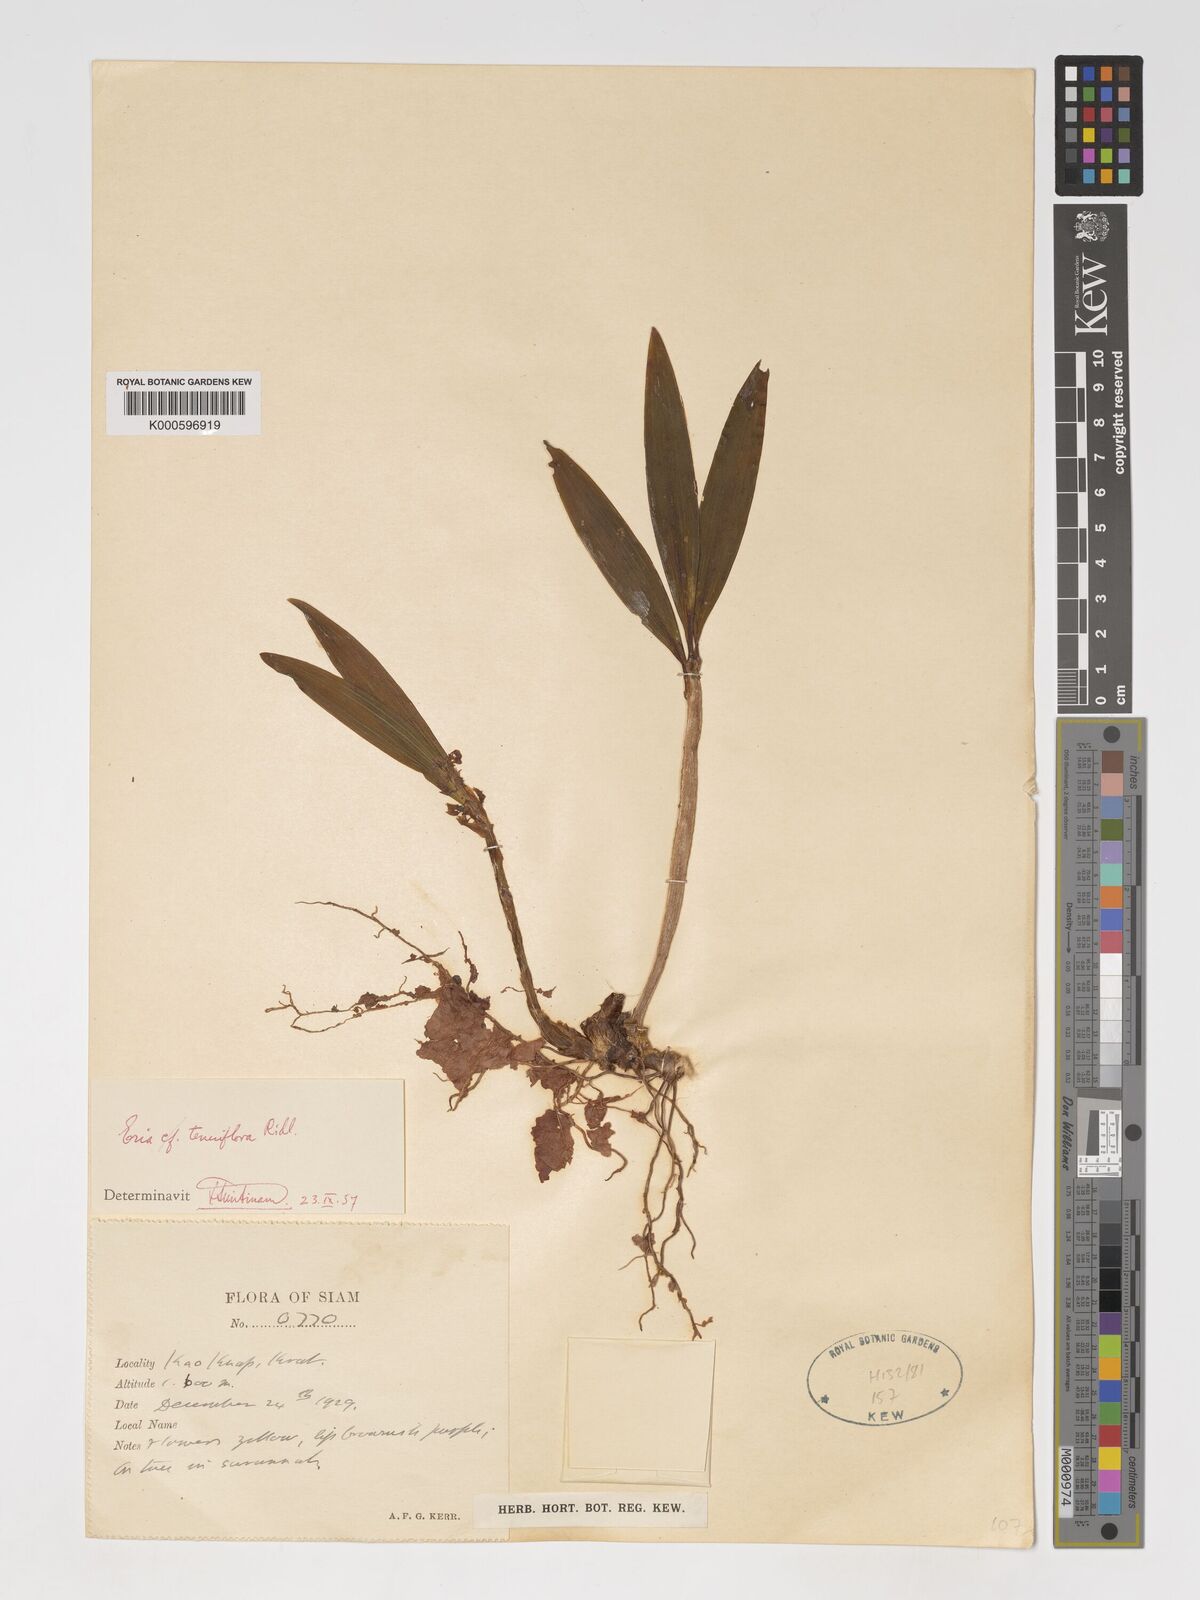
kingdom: Plantae
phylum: Tracheophyta
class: Liliopsida
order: Asparagales
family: Orchidaceae
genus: Pinalia
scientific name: Pinalia tenuiflora
